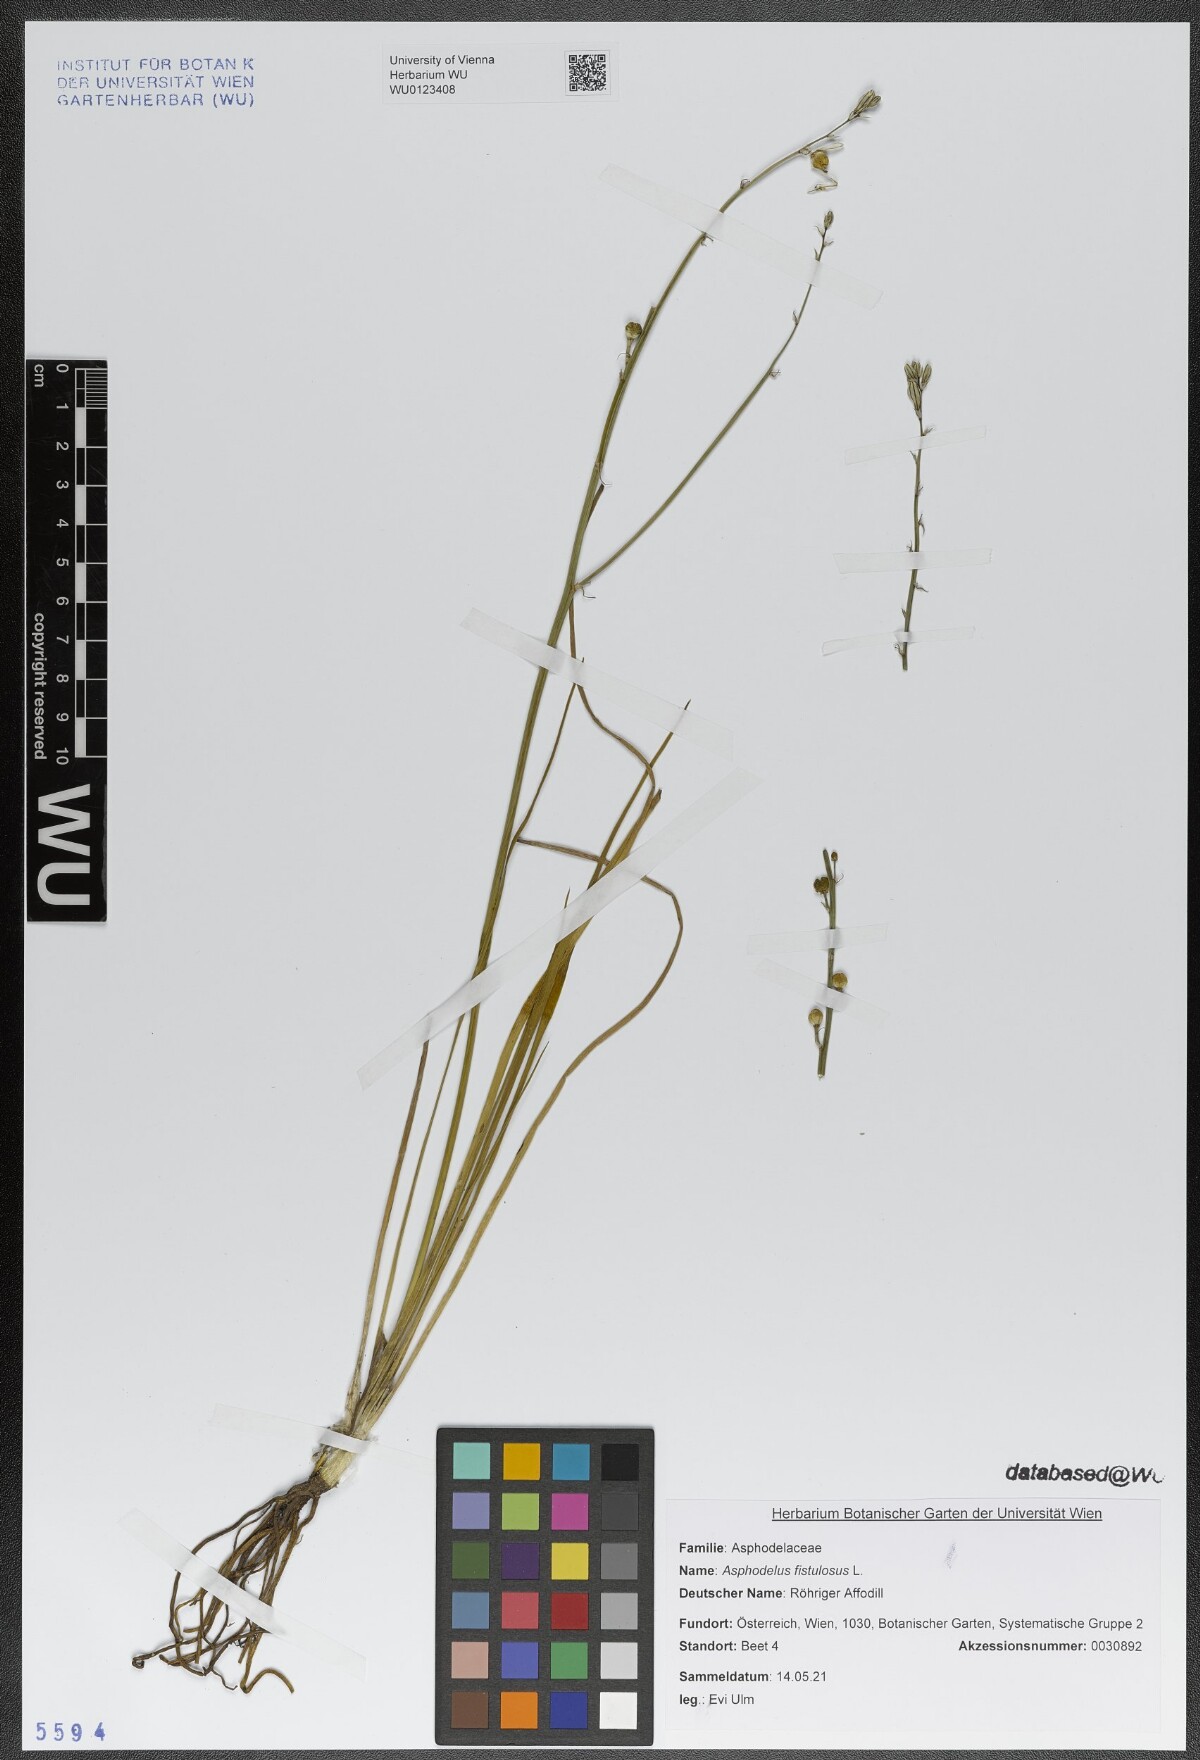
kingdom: Plantae
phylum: Tracheophyta
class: Liliopsida
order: Asparagales
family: Asphodelaceae
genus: Asphodelus
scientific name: Asphodelus fistulosus
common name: Onionweed
